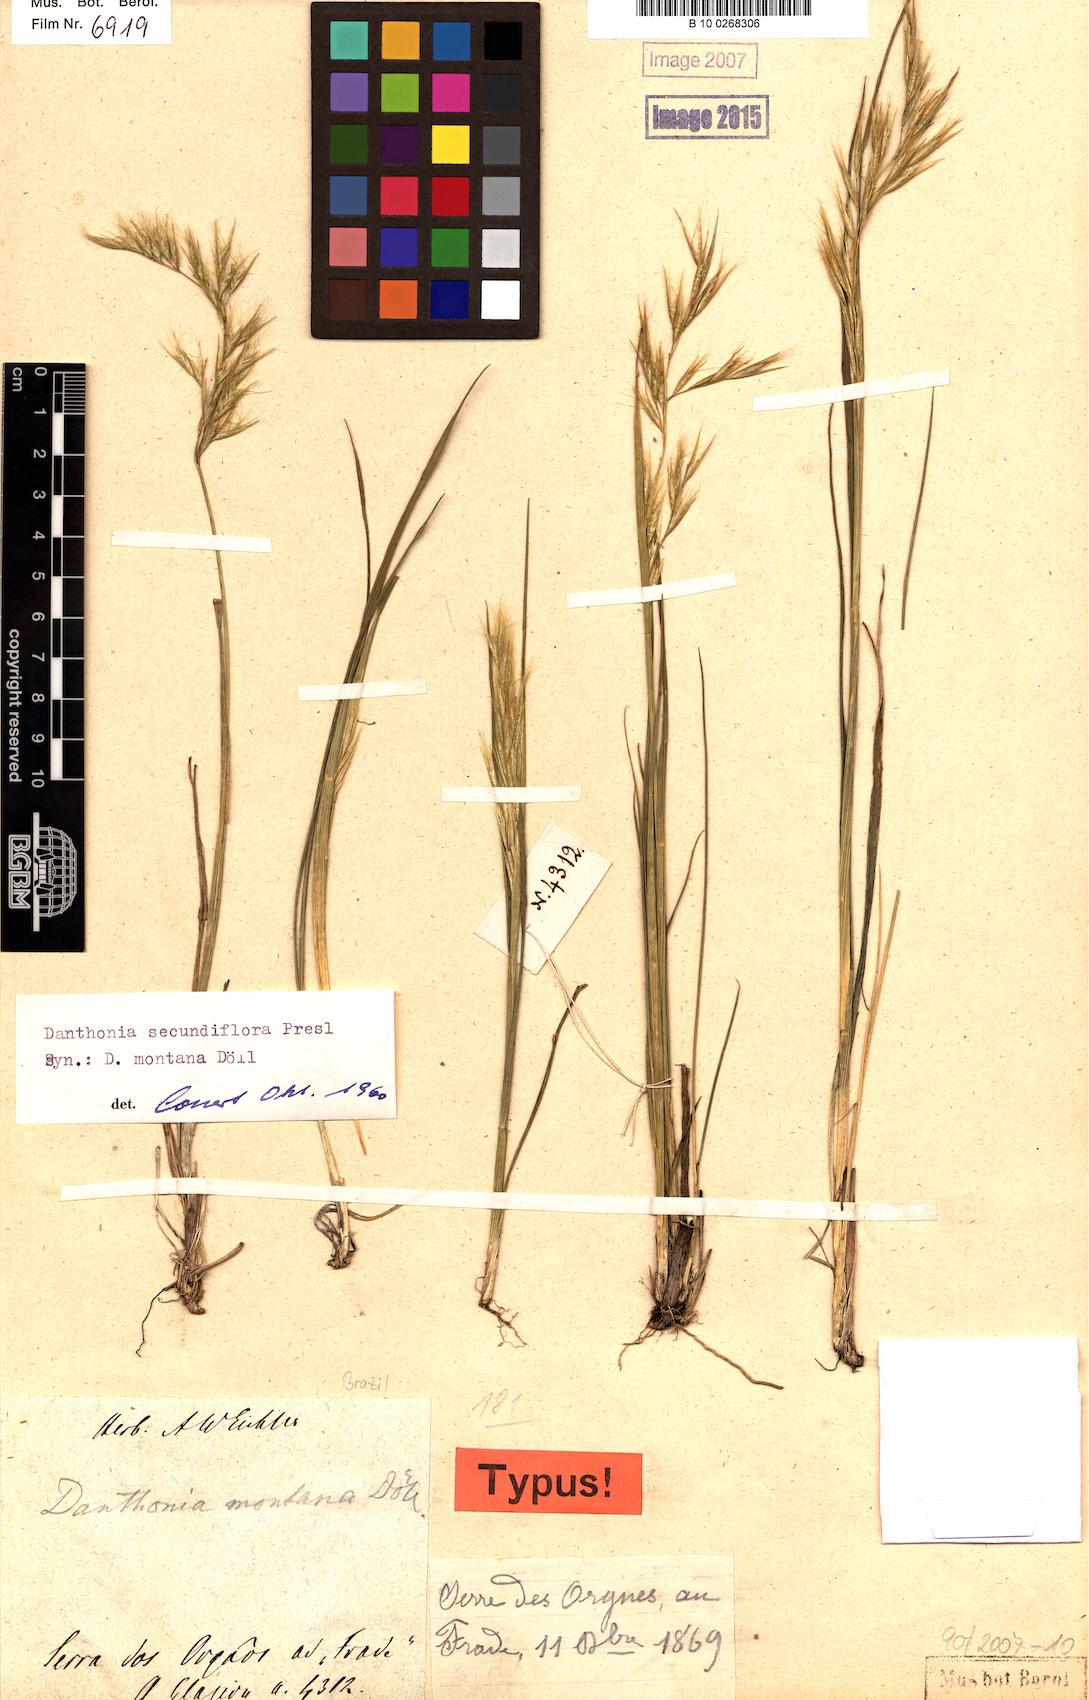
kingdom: Plantae
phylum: Tracheophyta
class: Liliopsida
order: Poales
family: Poaceae
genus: Danthonia
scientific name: Danthonia secundiflora
